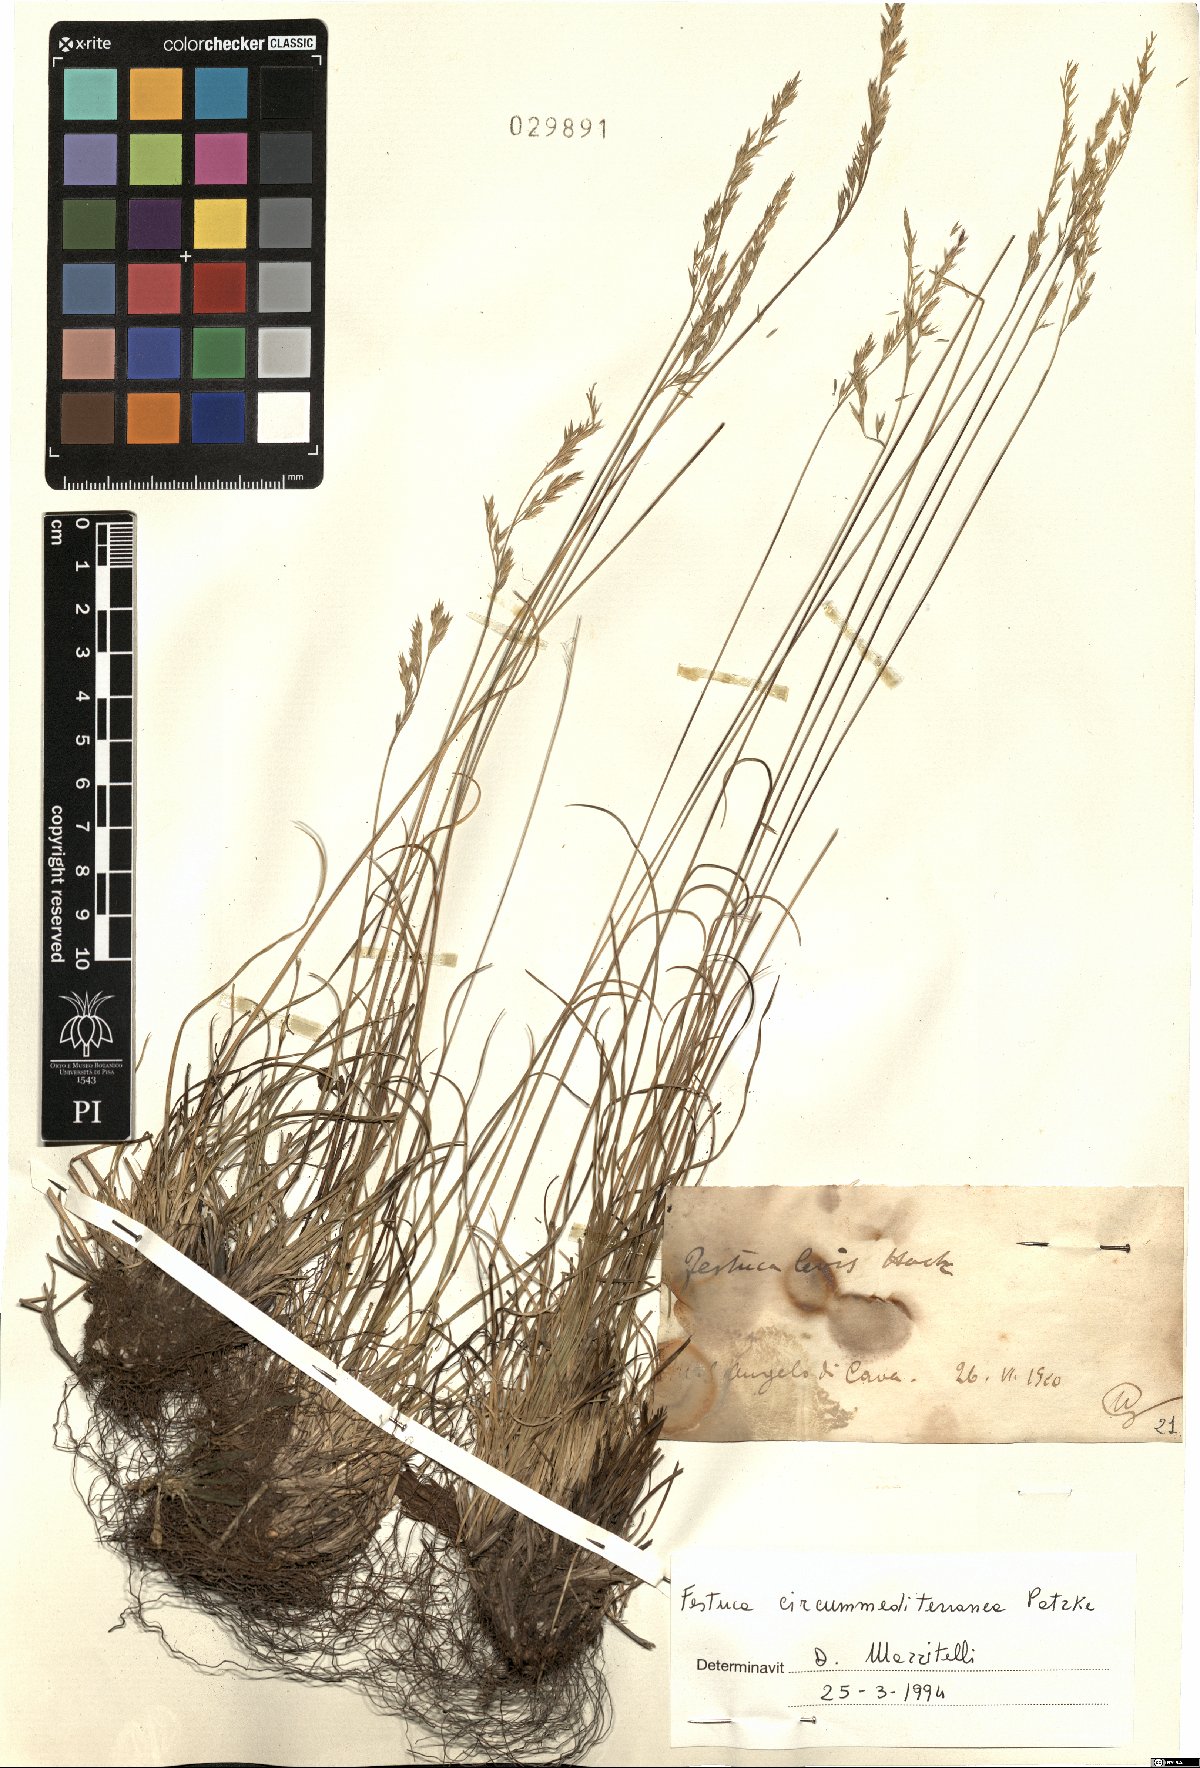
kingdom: Plantae
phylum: Tracheophyta
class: Liliopsida
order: Poales
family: Poaceae
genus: Festuca
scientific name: Festuca circummediterranea
